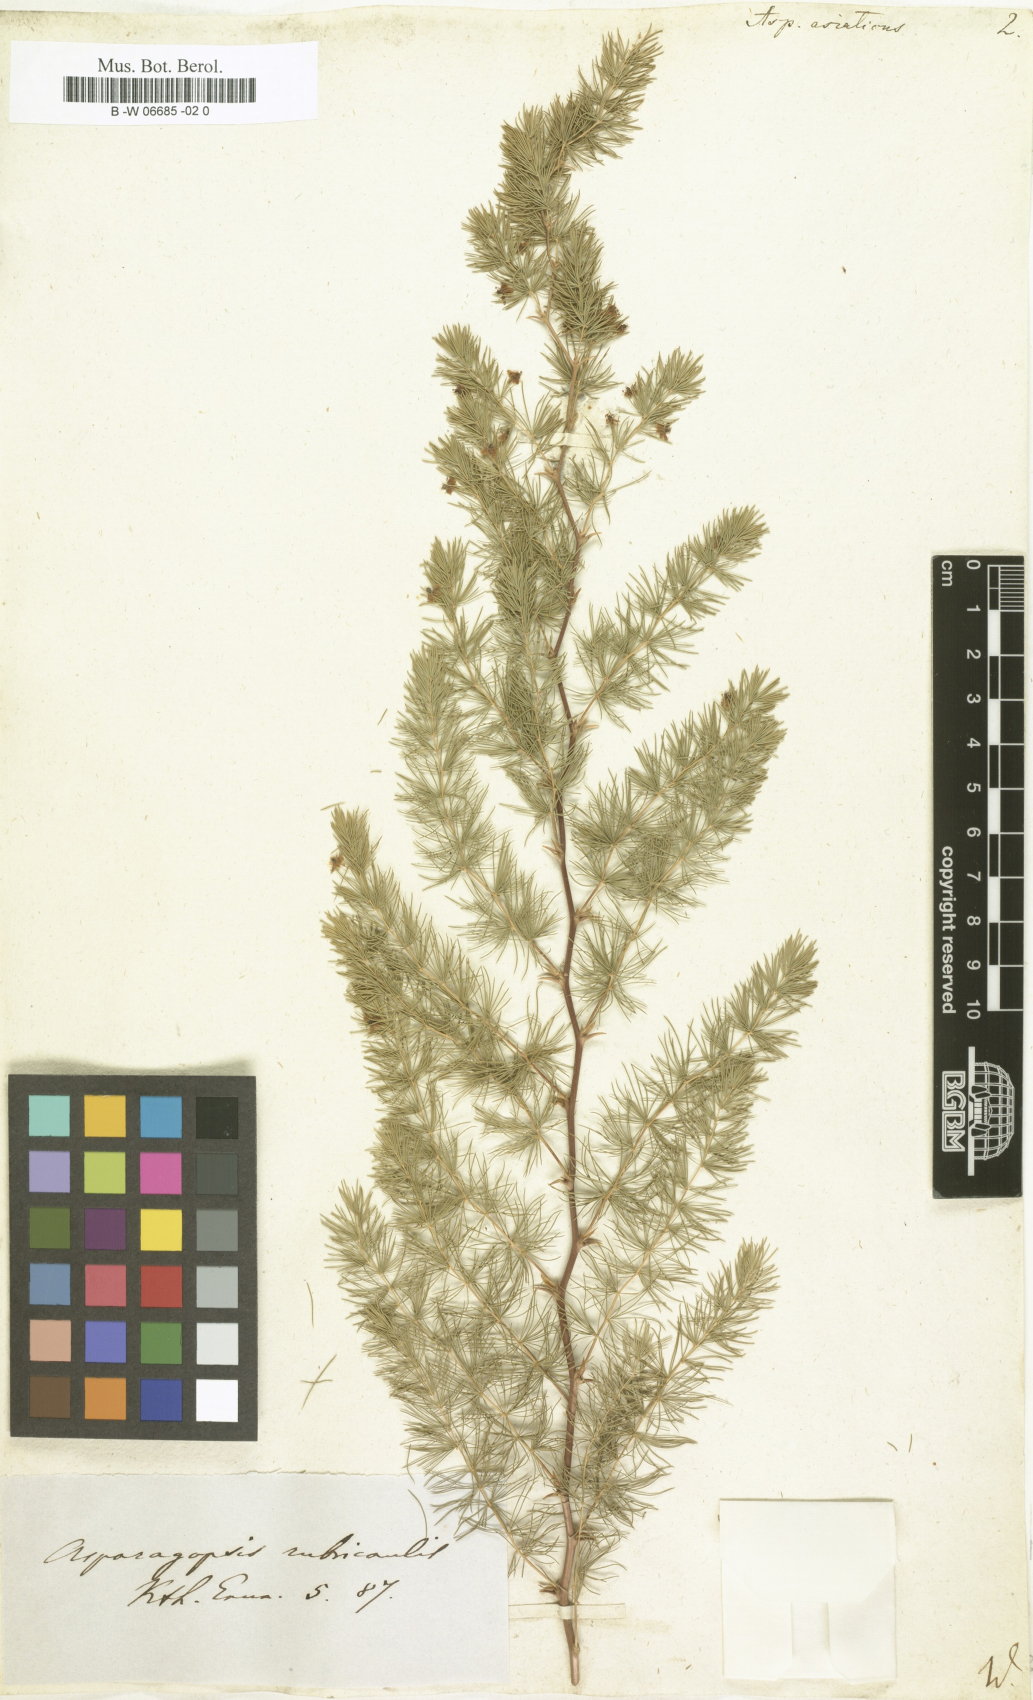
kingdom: Plantae
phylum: Tracheophyta
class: Liliopsida
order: Asparagales
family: Asparagaceae
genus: Asparagus
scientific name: Asparagus asiaticus
